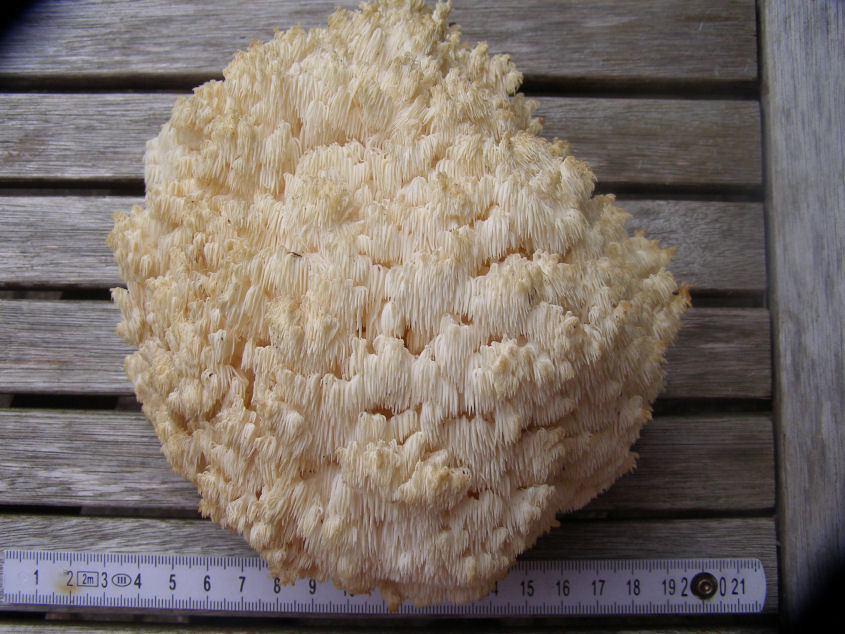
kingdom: Fungi
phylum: Basidiomycota
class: Agaricomycetes
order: Russulales
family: Hericiaceae
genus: Hericium
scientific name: Hericium coralloides
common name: koralpigsvamp
